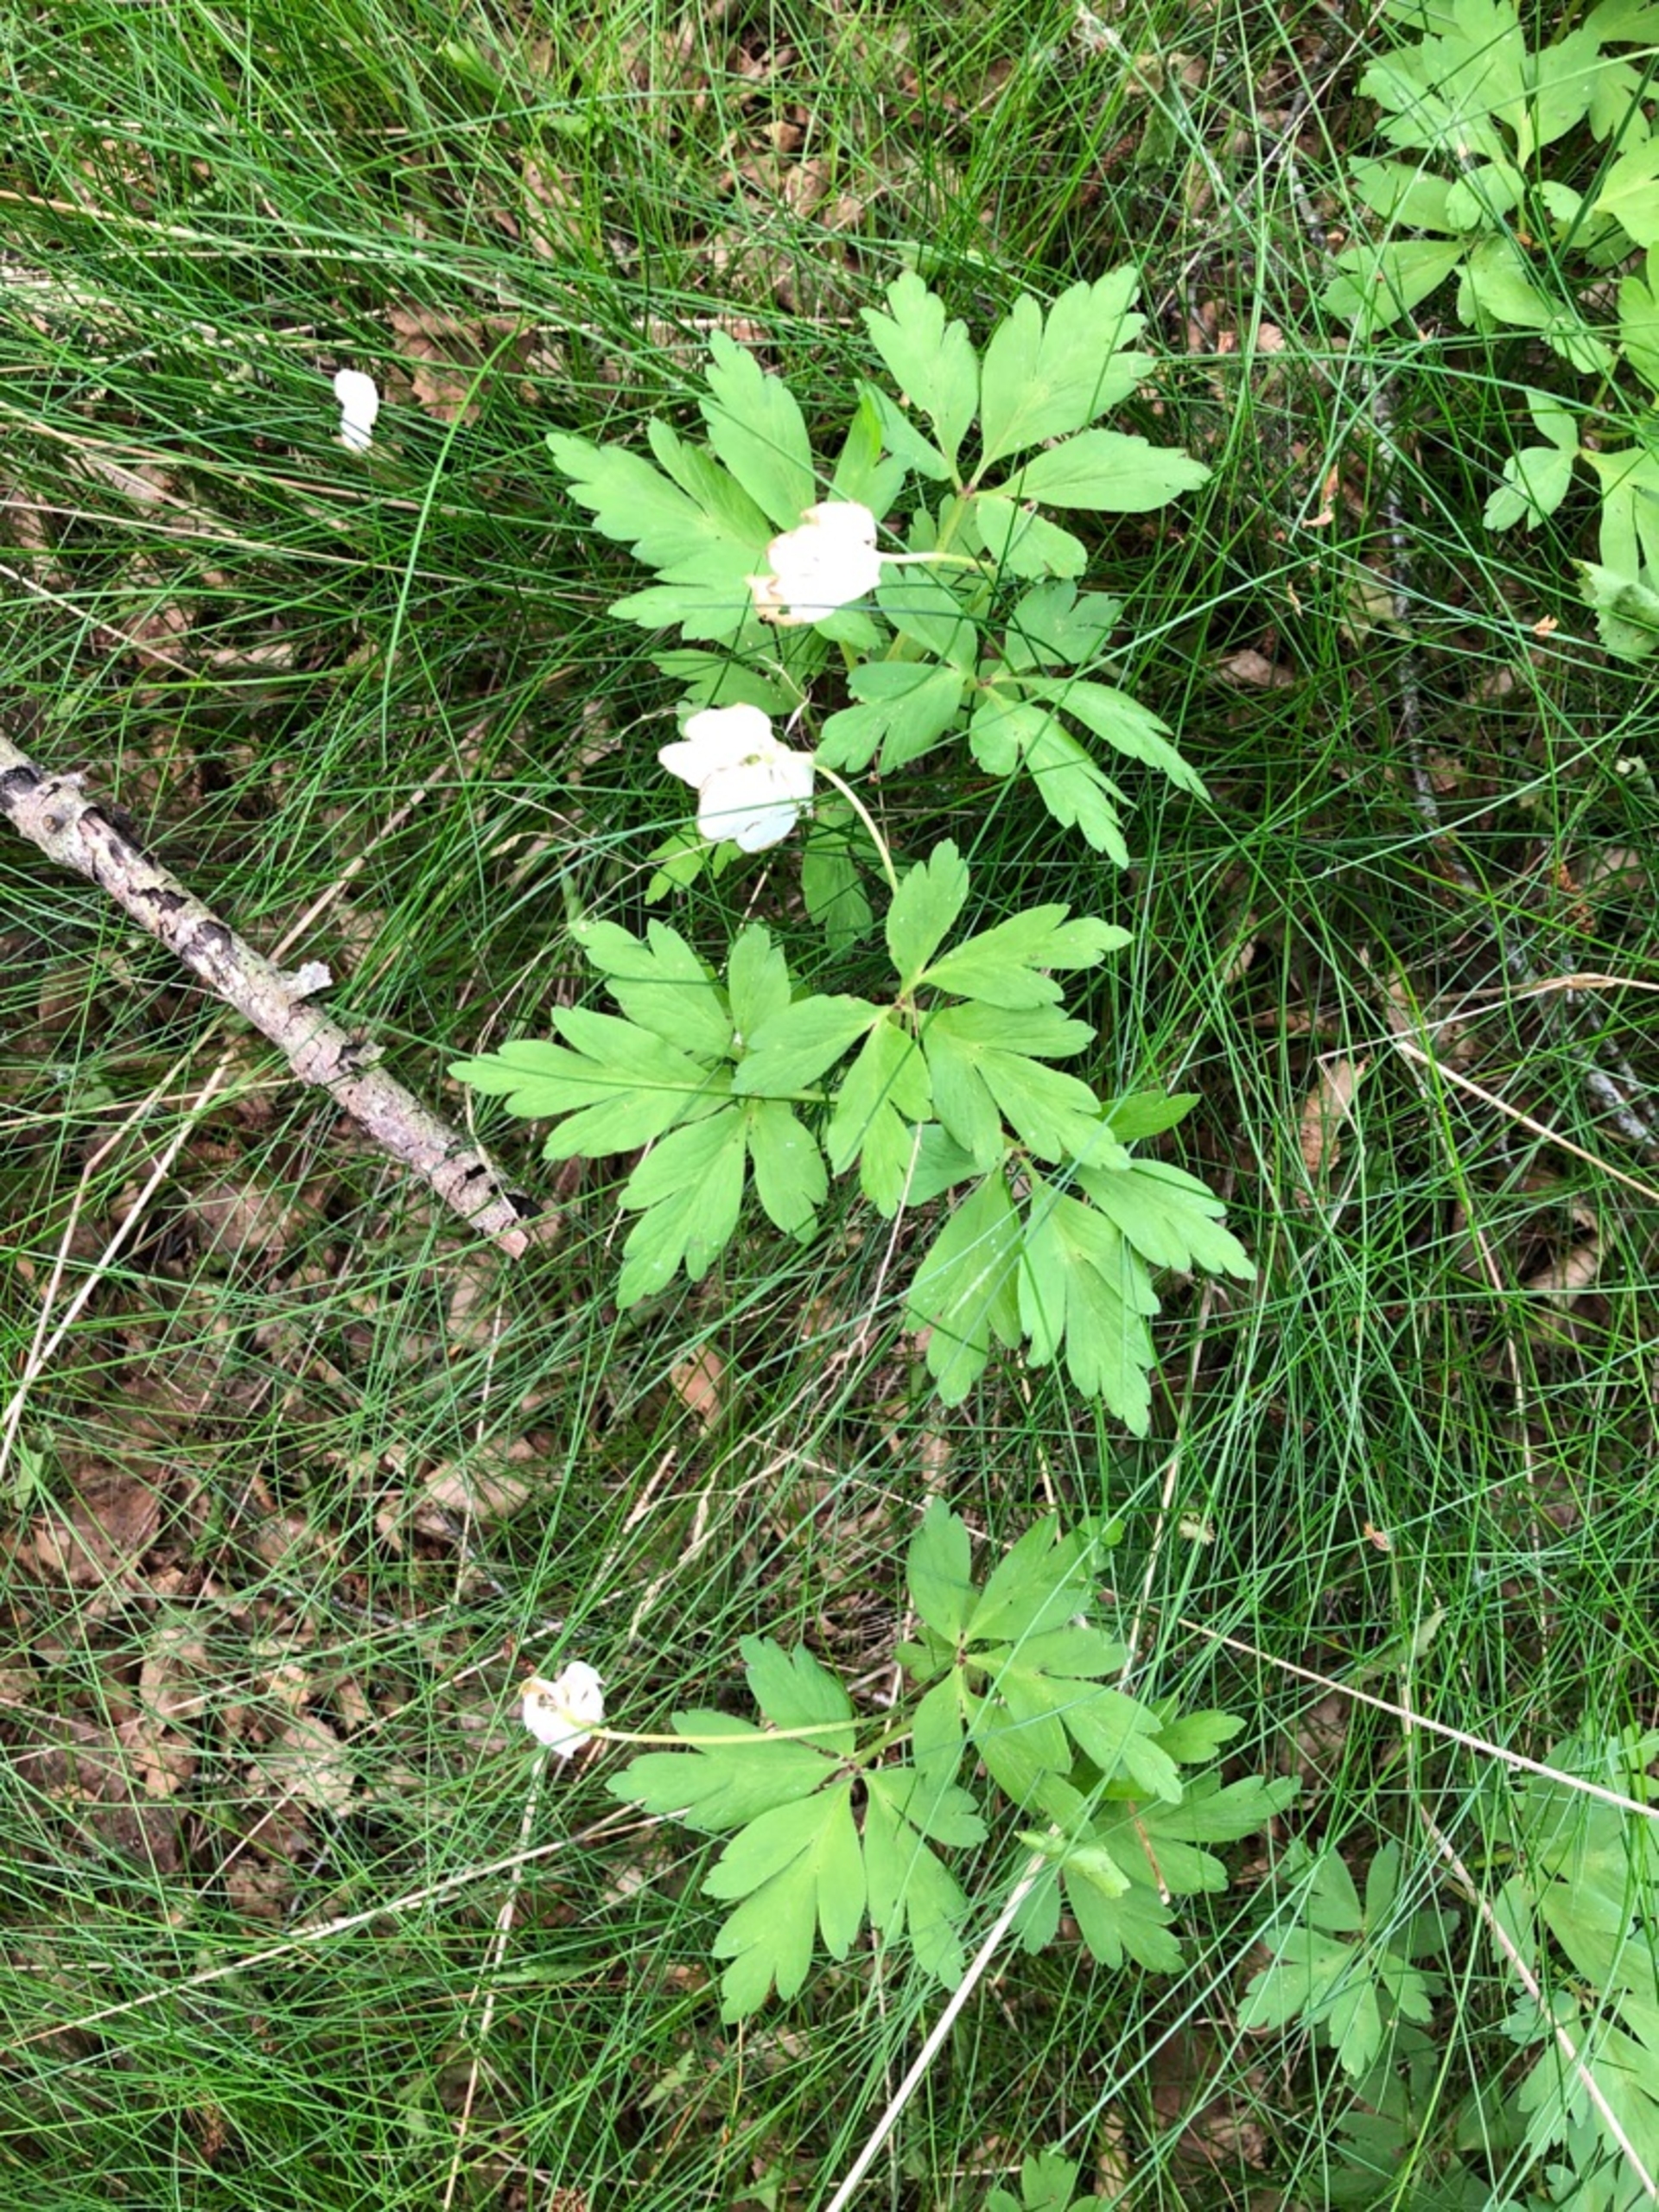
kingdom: Plantae
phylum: Tracheophyta
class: Magnoliopsida
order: Ranunculales
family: Ranunculaceae
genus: Anemone
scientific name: Anemone nemorosa
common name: Hvid anemone
